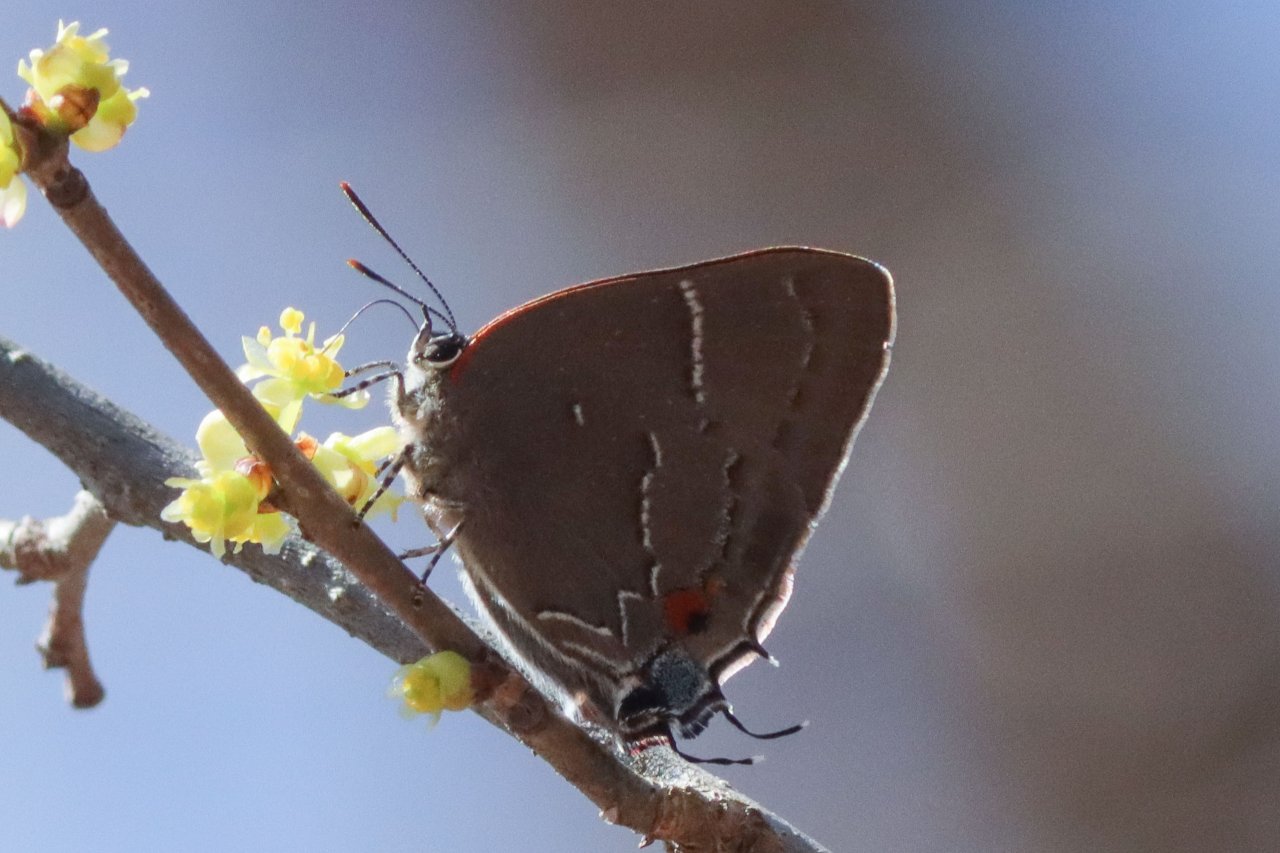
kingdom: Animalia
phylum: Arthropoda
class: Insecta
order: Lepidoptera
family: Lycaenidae
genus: Parrhasius
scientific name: Parrhasius m-album
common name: White-m Hairstreak
